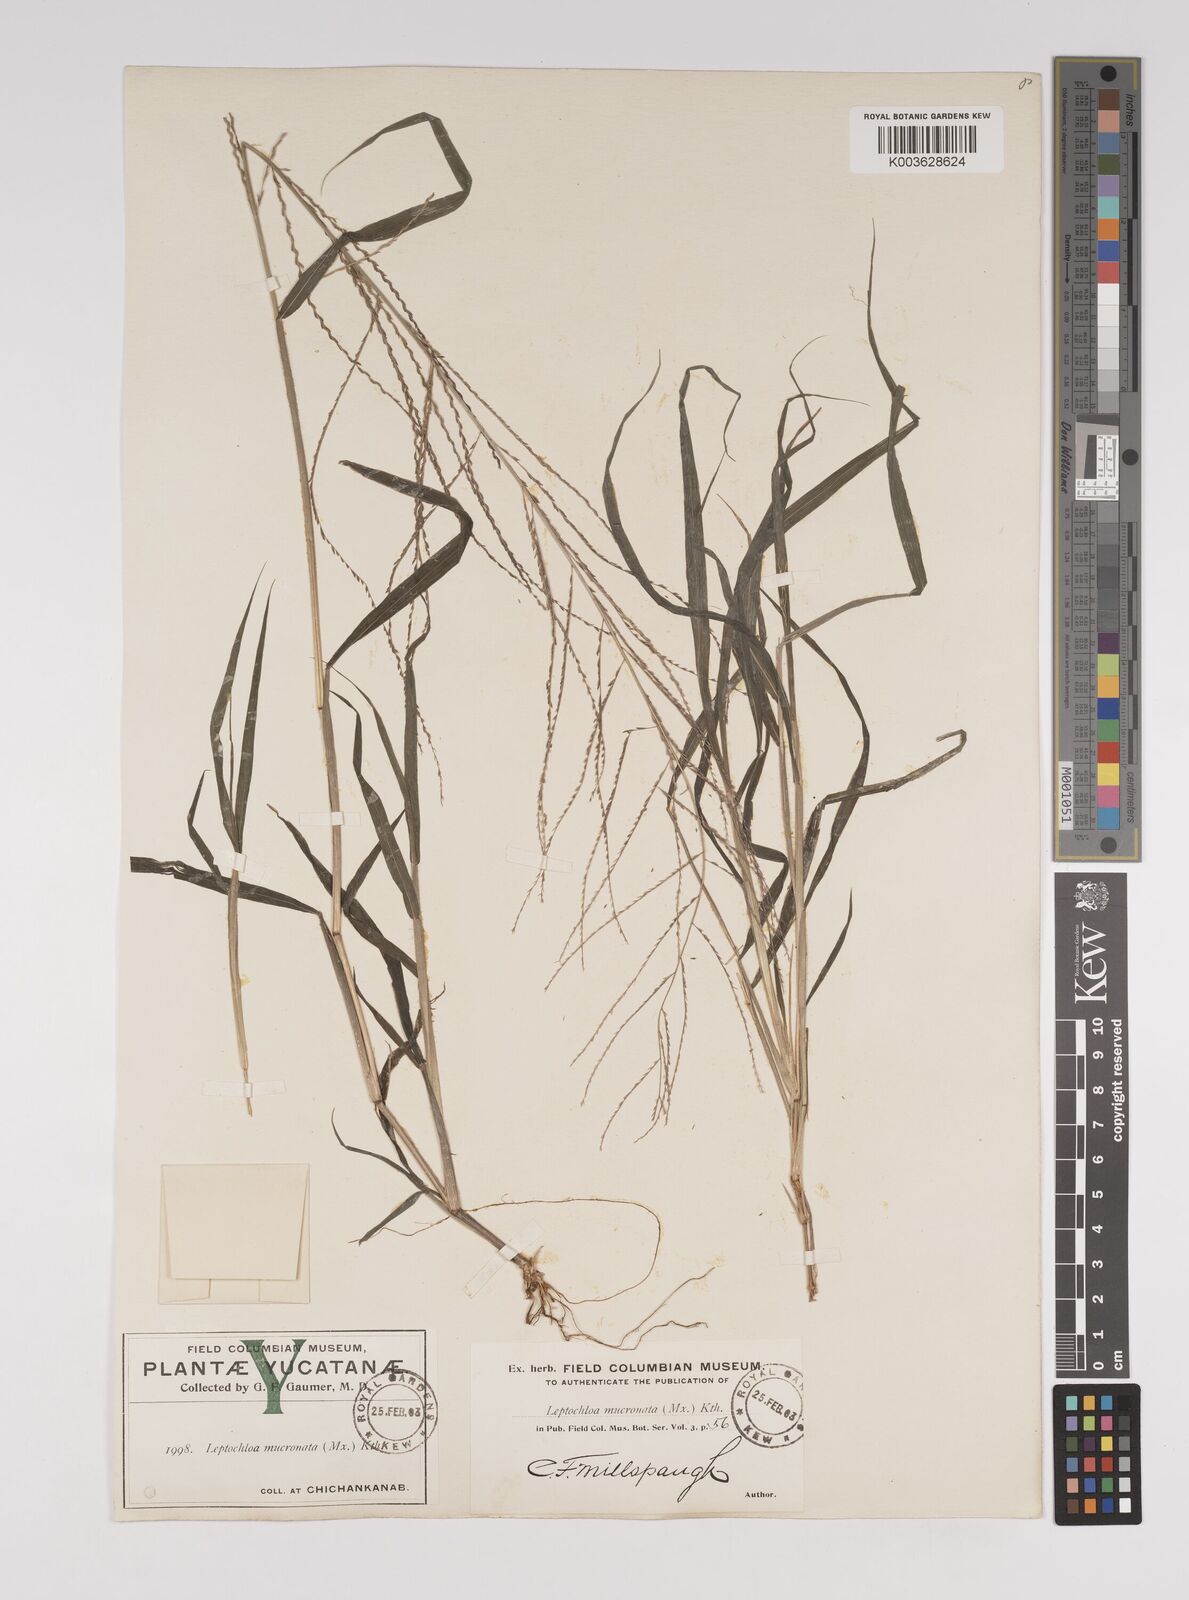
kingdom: Plantae
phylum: Tracheophyta
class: Liliopsida
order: Poales
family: Poaceae
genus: Leptochloa
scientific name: Leptochloa panicea
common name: Mucronate sprangletop
